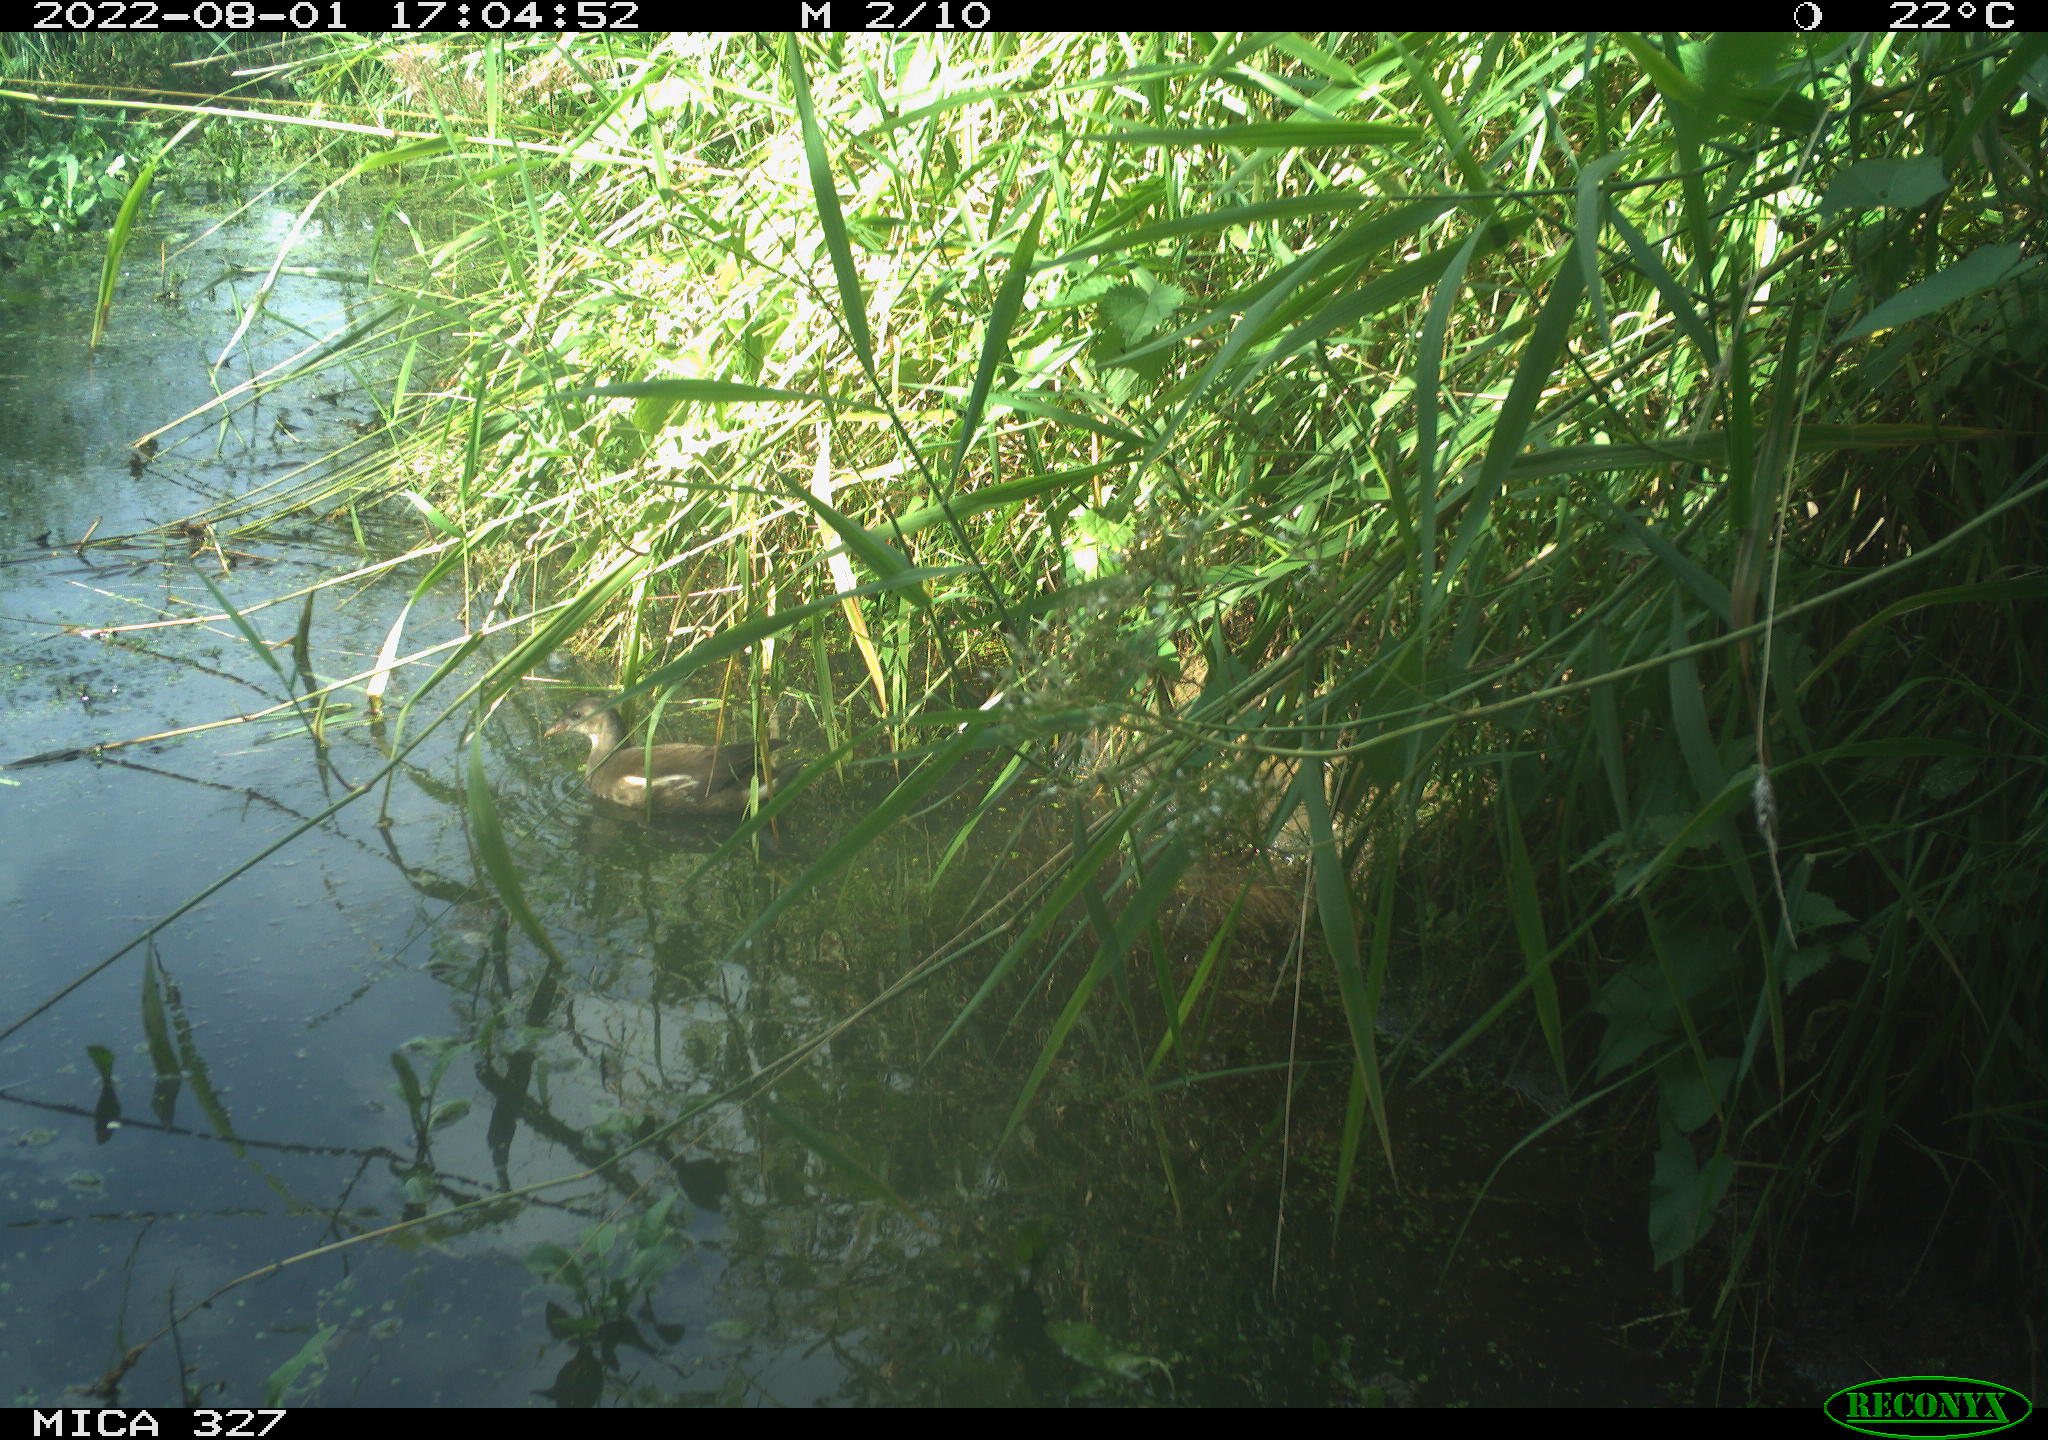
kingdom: Animalia
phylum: Chordata
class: Aves
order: Gruiformes
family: Rallidae
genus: Gallinula
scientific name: Gallinula chloropus
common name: Common moorhen
